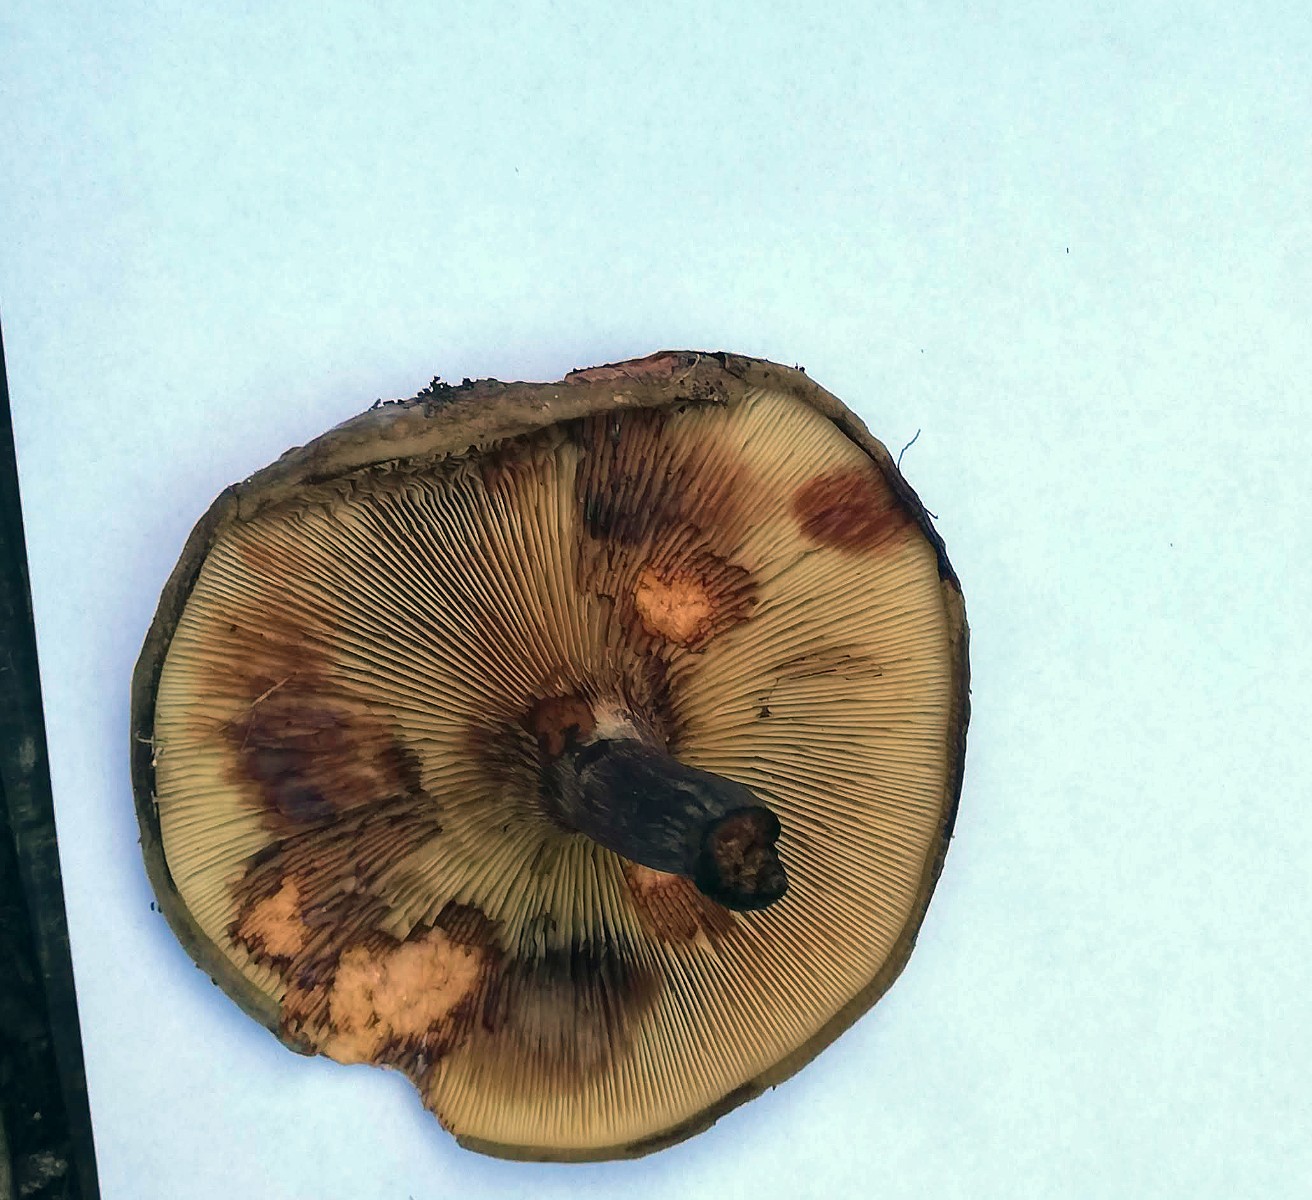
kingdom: Fungi
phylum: Basidiomycota
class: Agaricomycetes
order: Boletales
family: Paxillaceae
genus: Paxillus
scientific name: Paxillus involutus
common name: almindelig netbladhat
